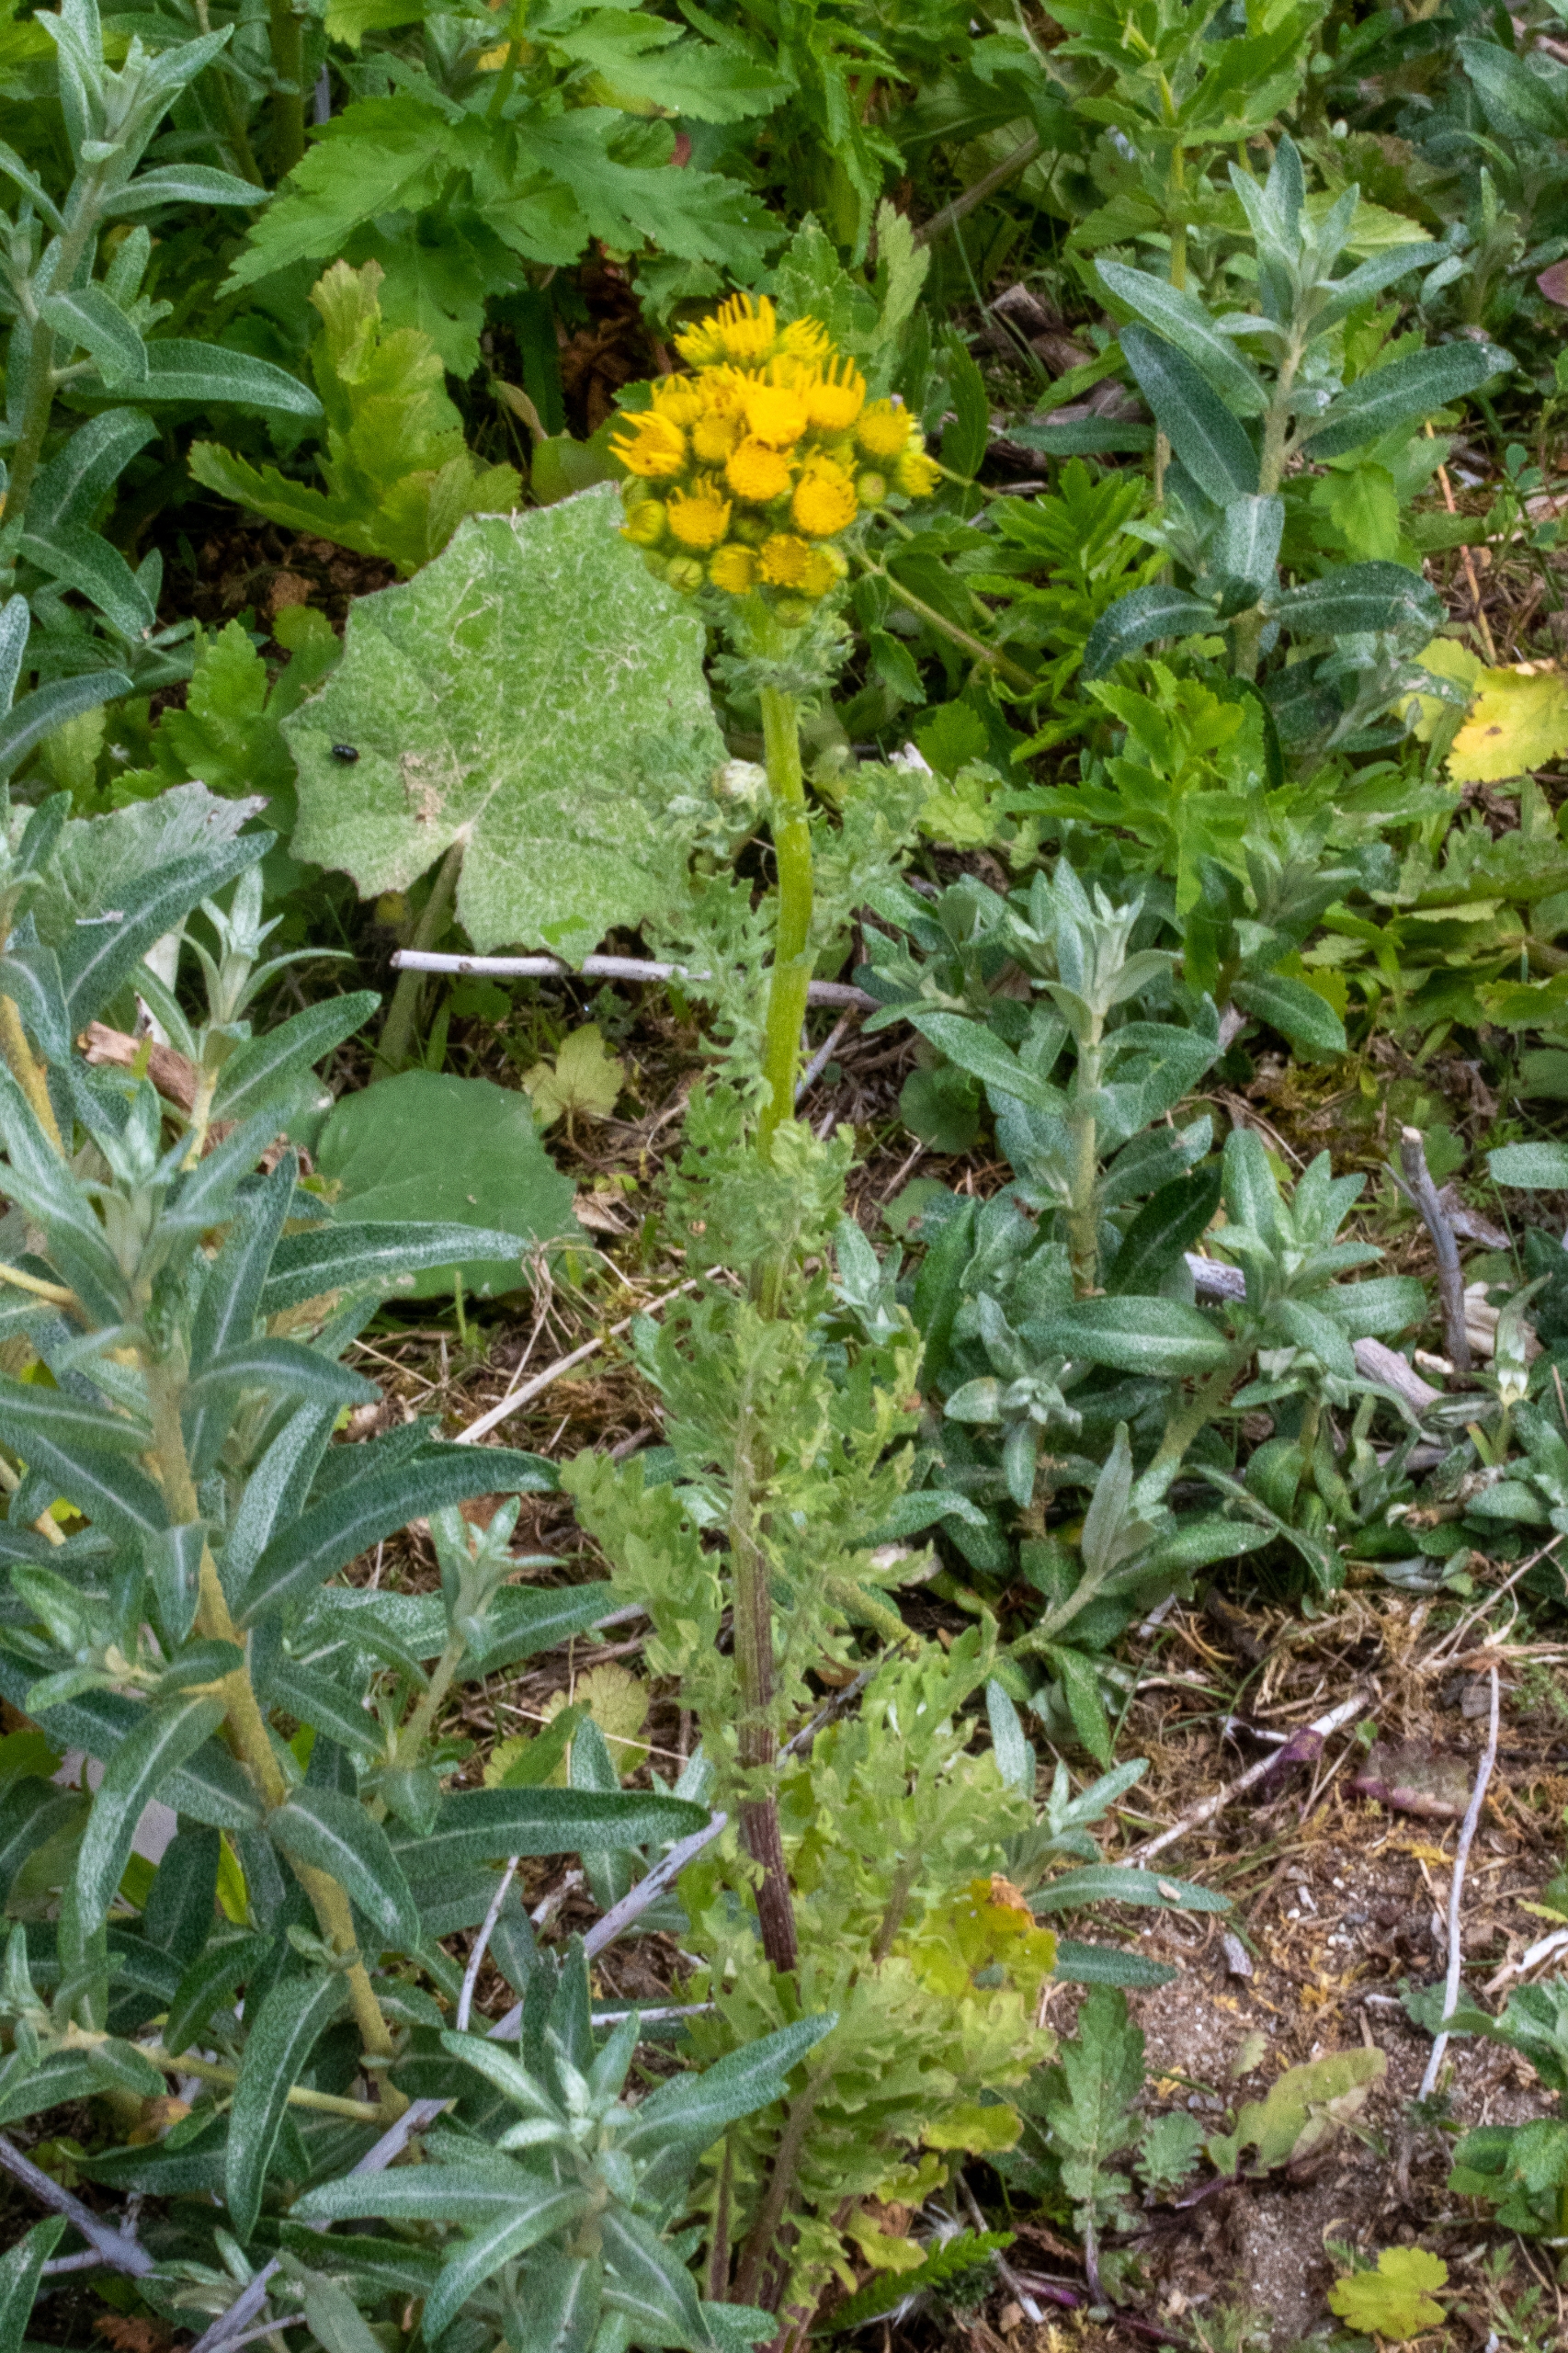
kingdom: Plantae
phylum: Tracheophyta
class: Magnoliopsida
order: Asterales
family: Asteraceae
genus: Jacobaea
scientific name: Jacobaea vulgaris
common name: Eng-brandbæger
